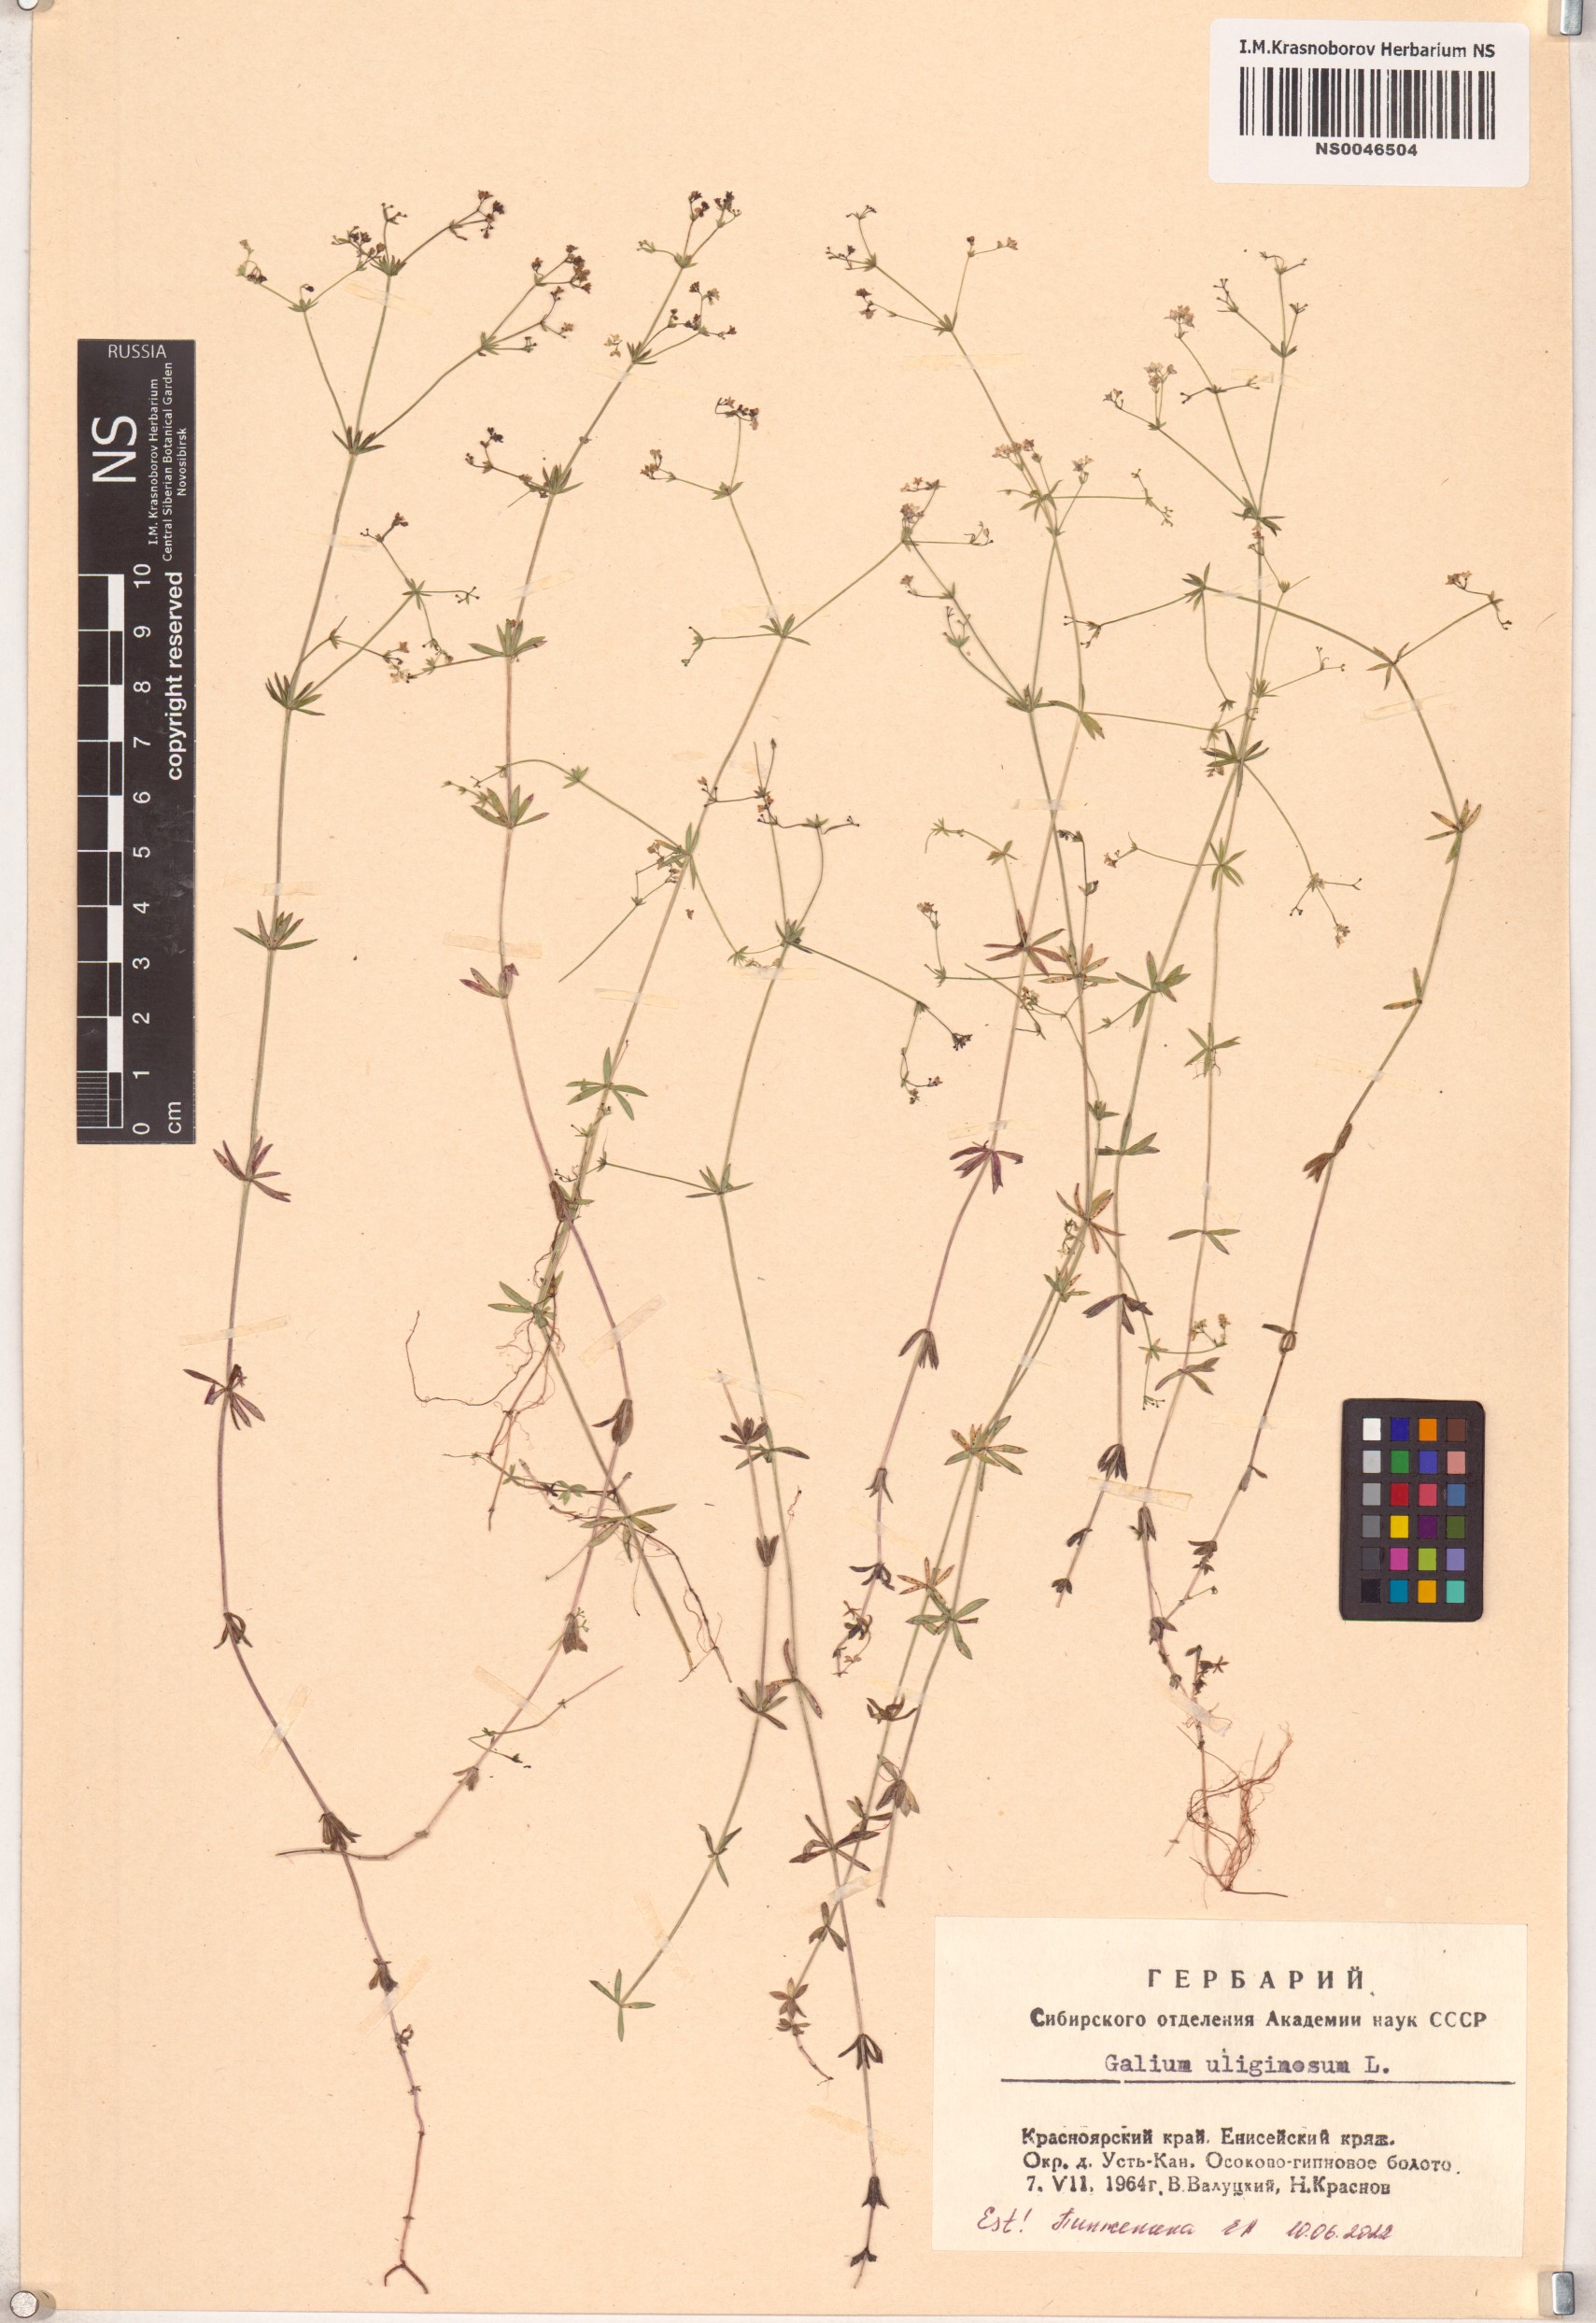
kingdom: Plantae
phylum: Tracheophyta
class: Magnoliopsida
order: Gentianales
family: Rubiaceae
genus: Galium
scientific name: Galium uliginosum
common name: Fen bedstraw
